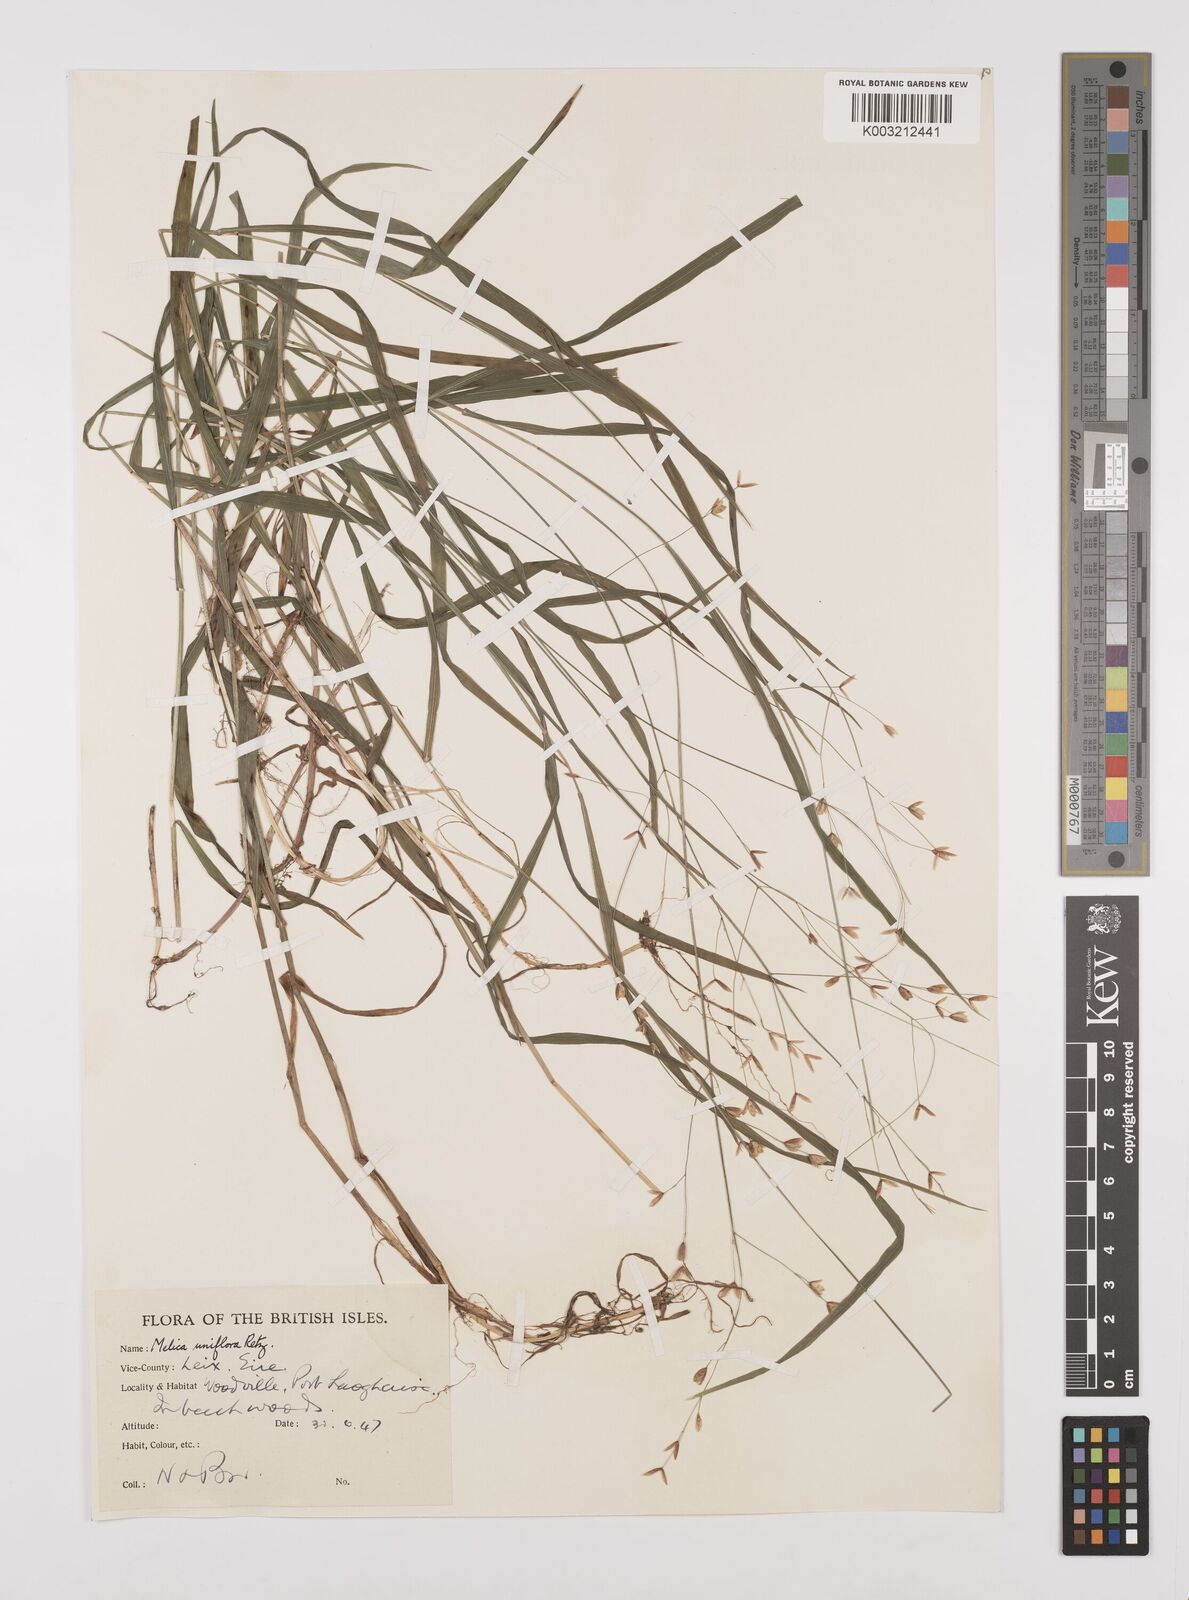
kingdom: Plantae
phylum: Tracheophyta
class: Liliopsida
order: Poales
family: Poaceae
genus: Melica
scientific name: Melica uniflora
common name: Wood melick
